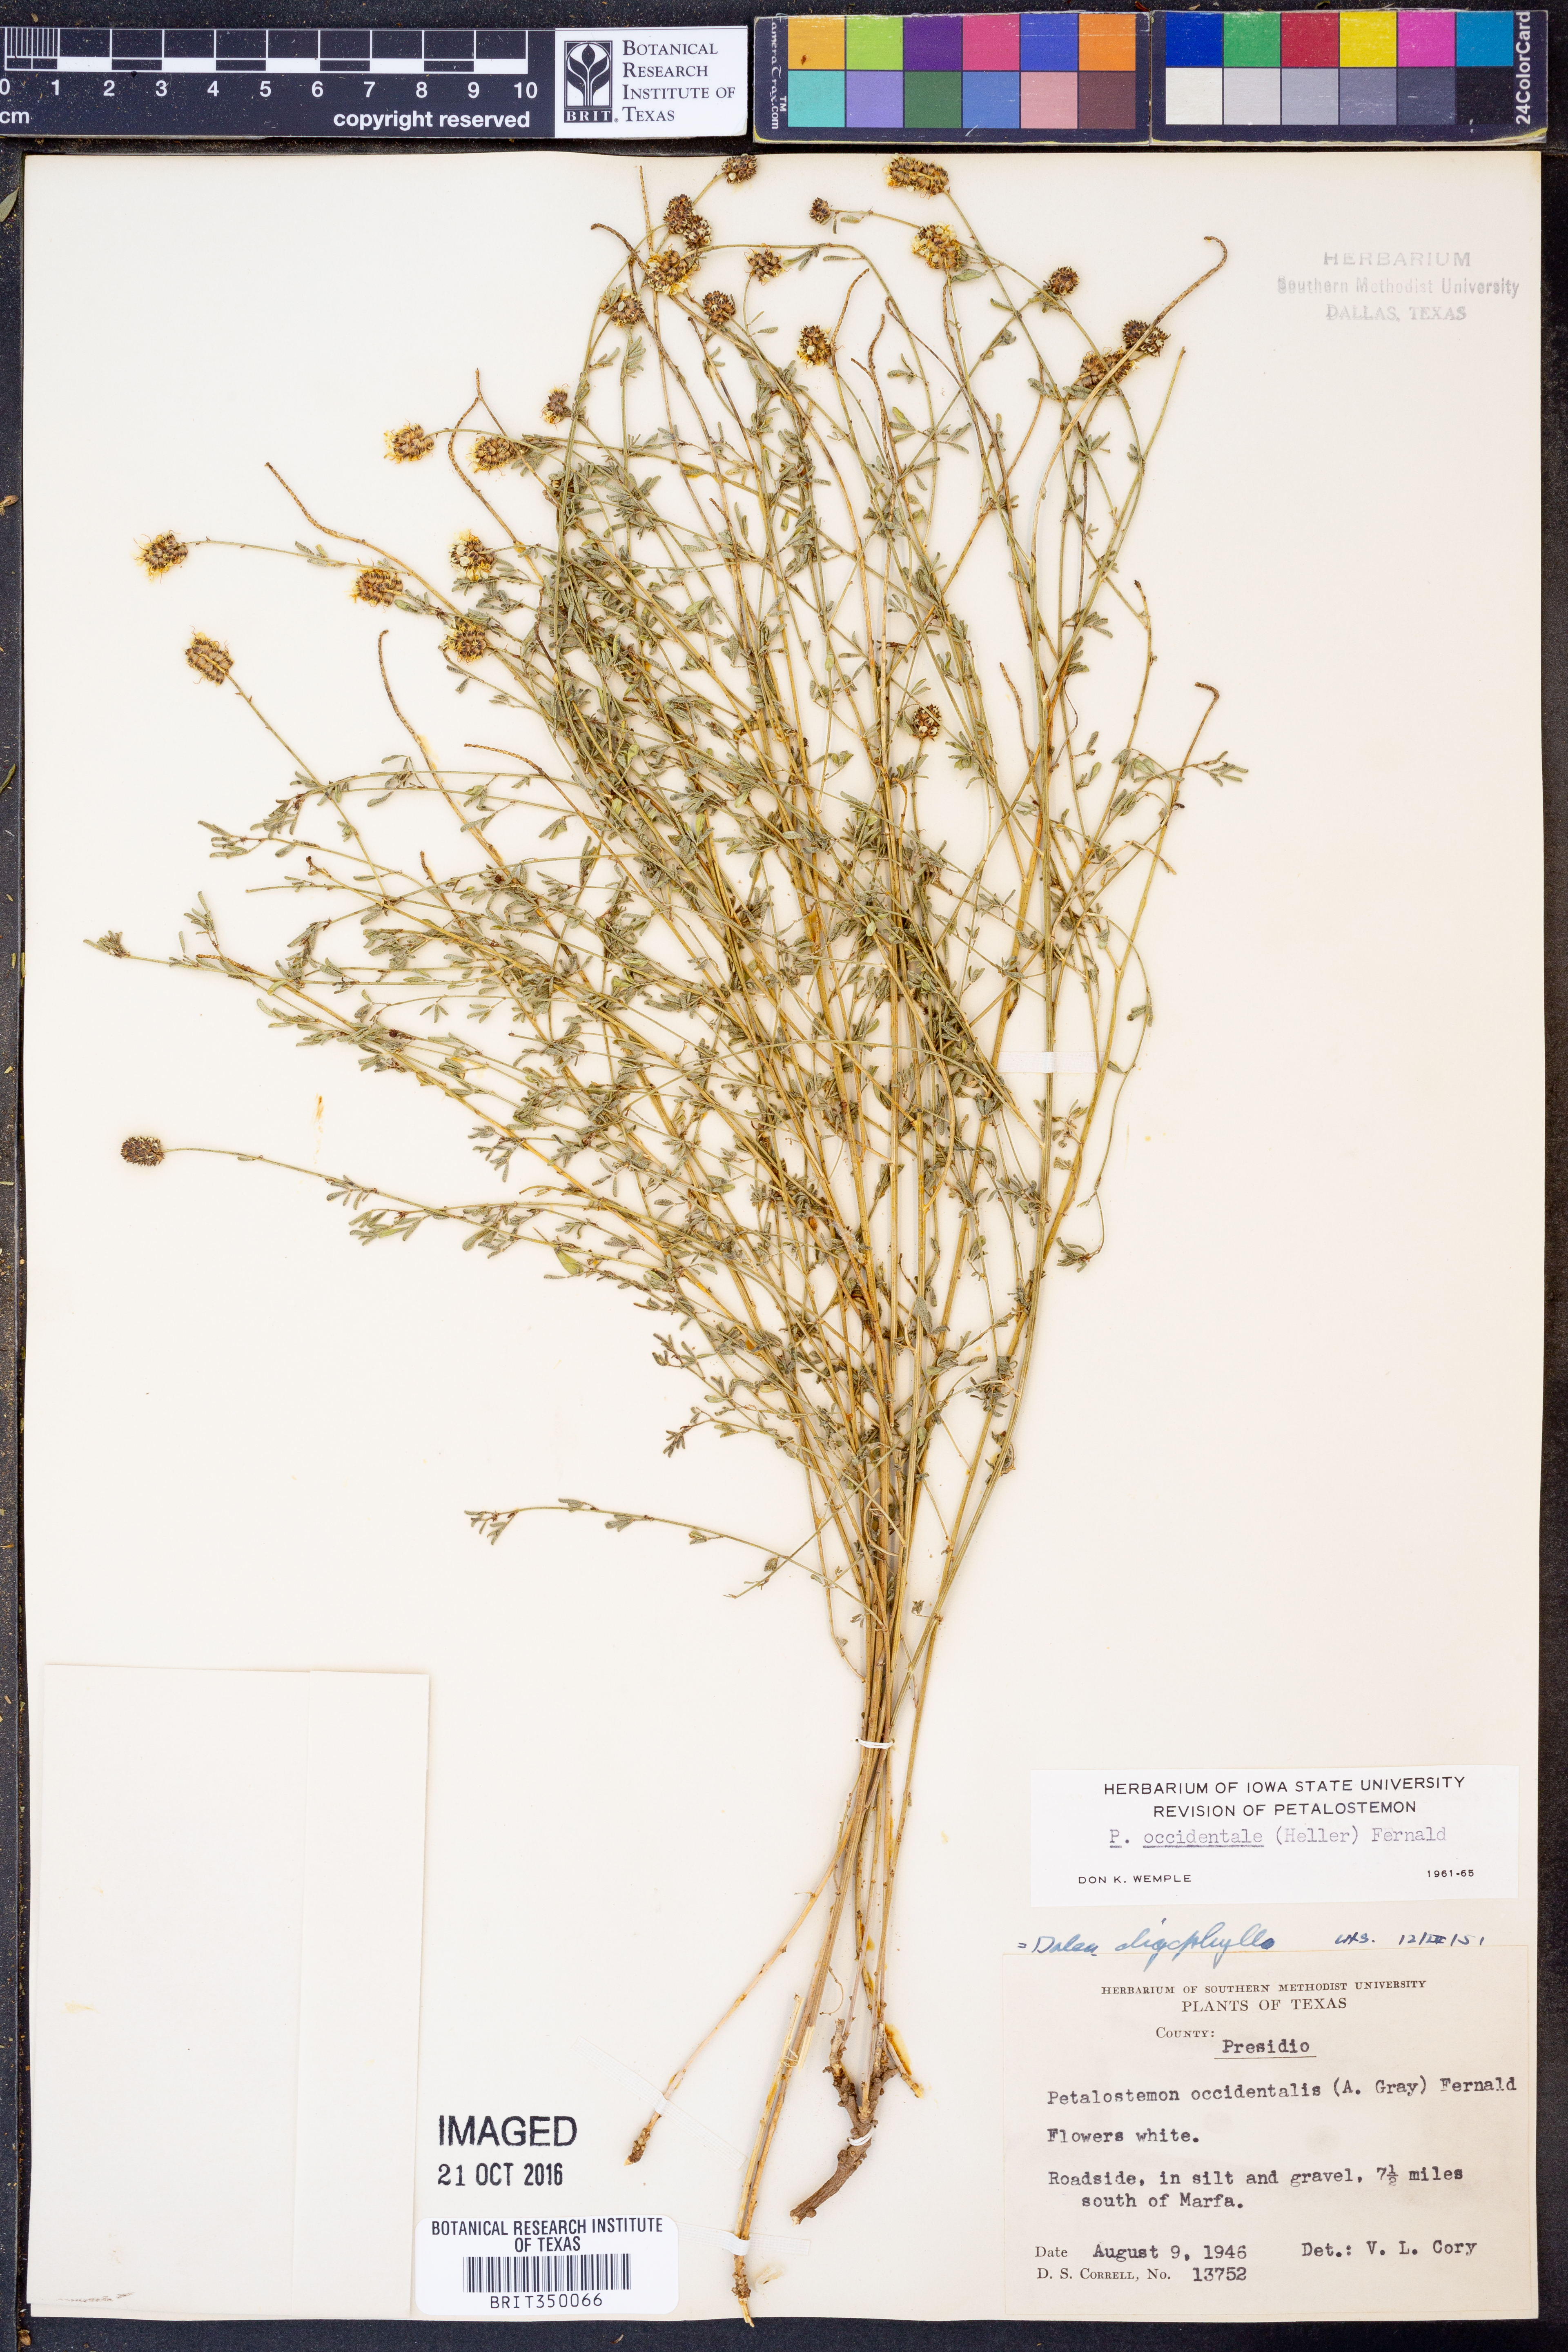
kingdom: Plantae
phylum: Tracheophyta
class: Magnoliopsida
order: Fabales
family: Fabaceae
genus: Dalea
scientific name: Dalea candida
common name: White prairie-clover
